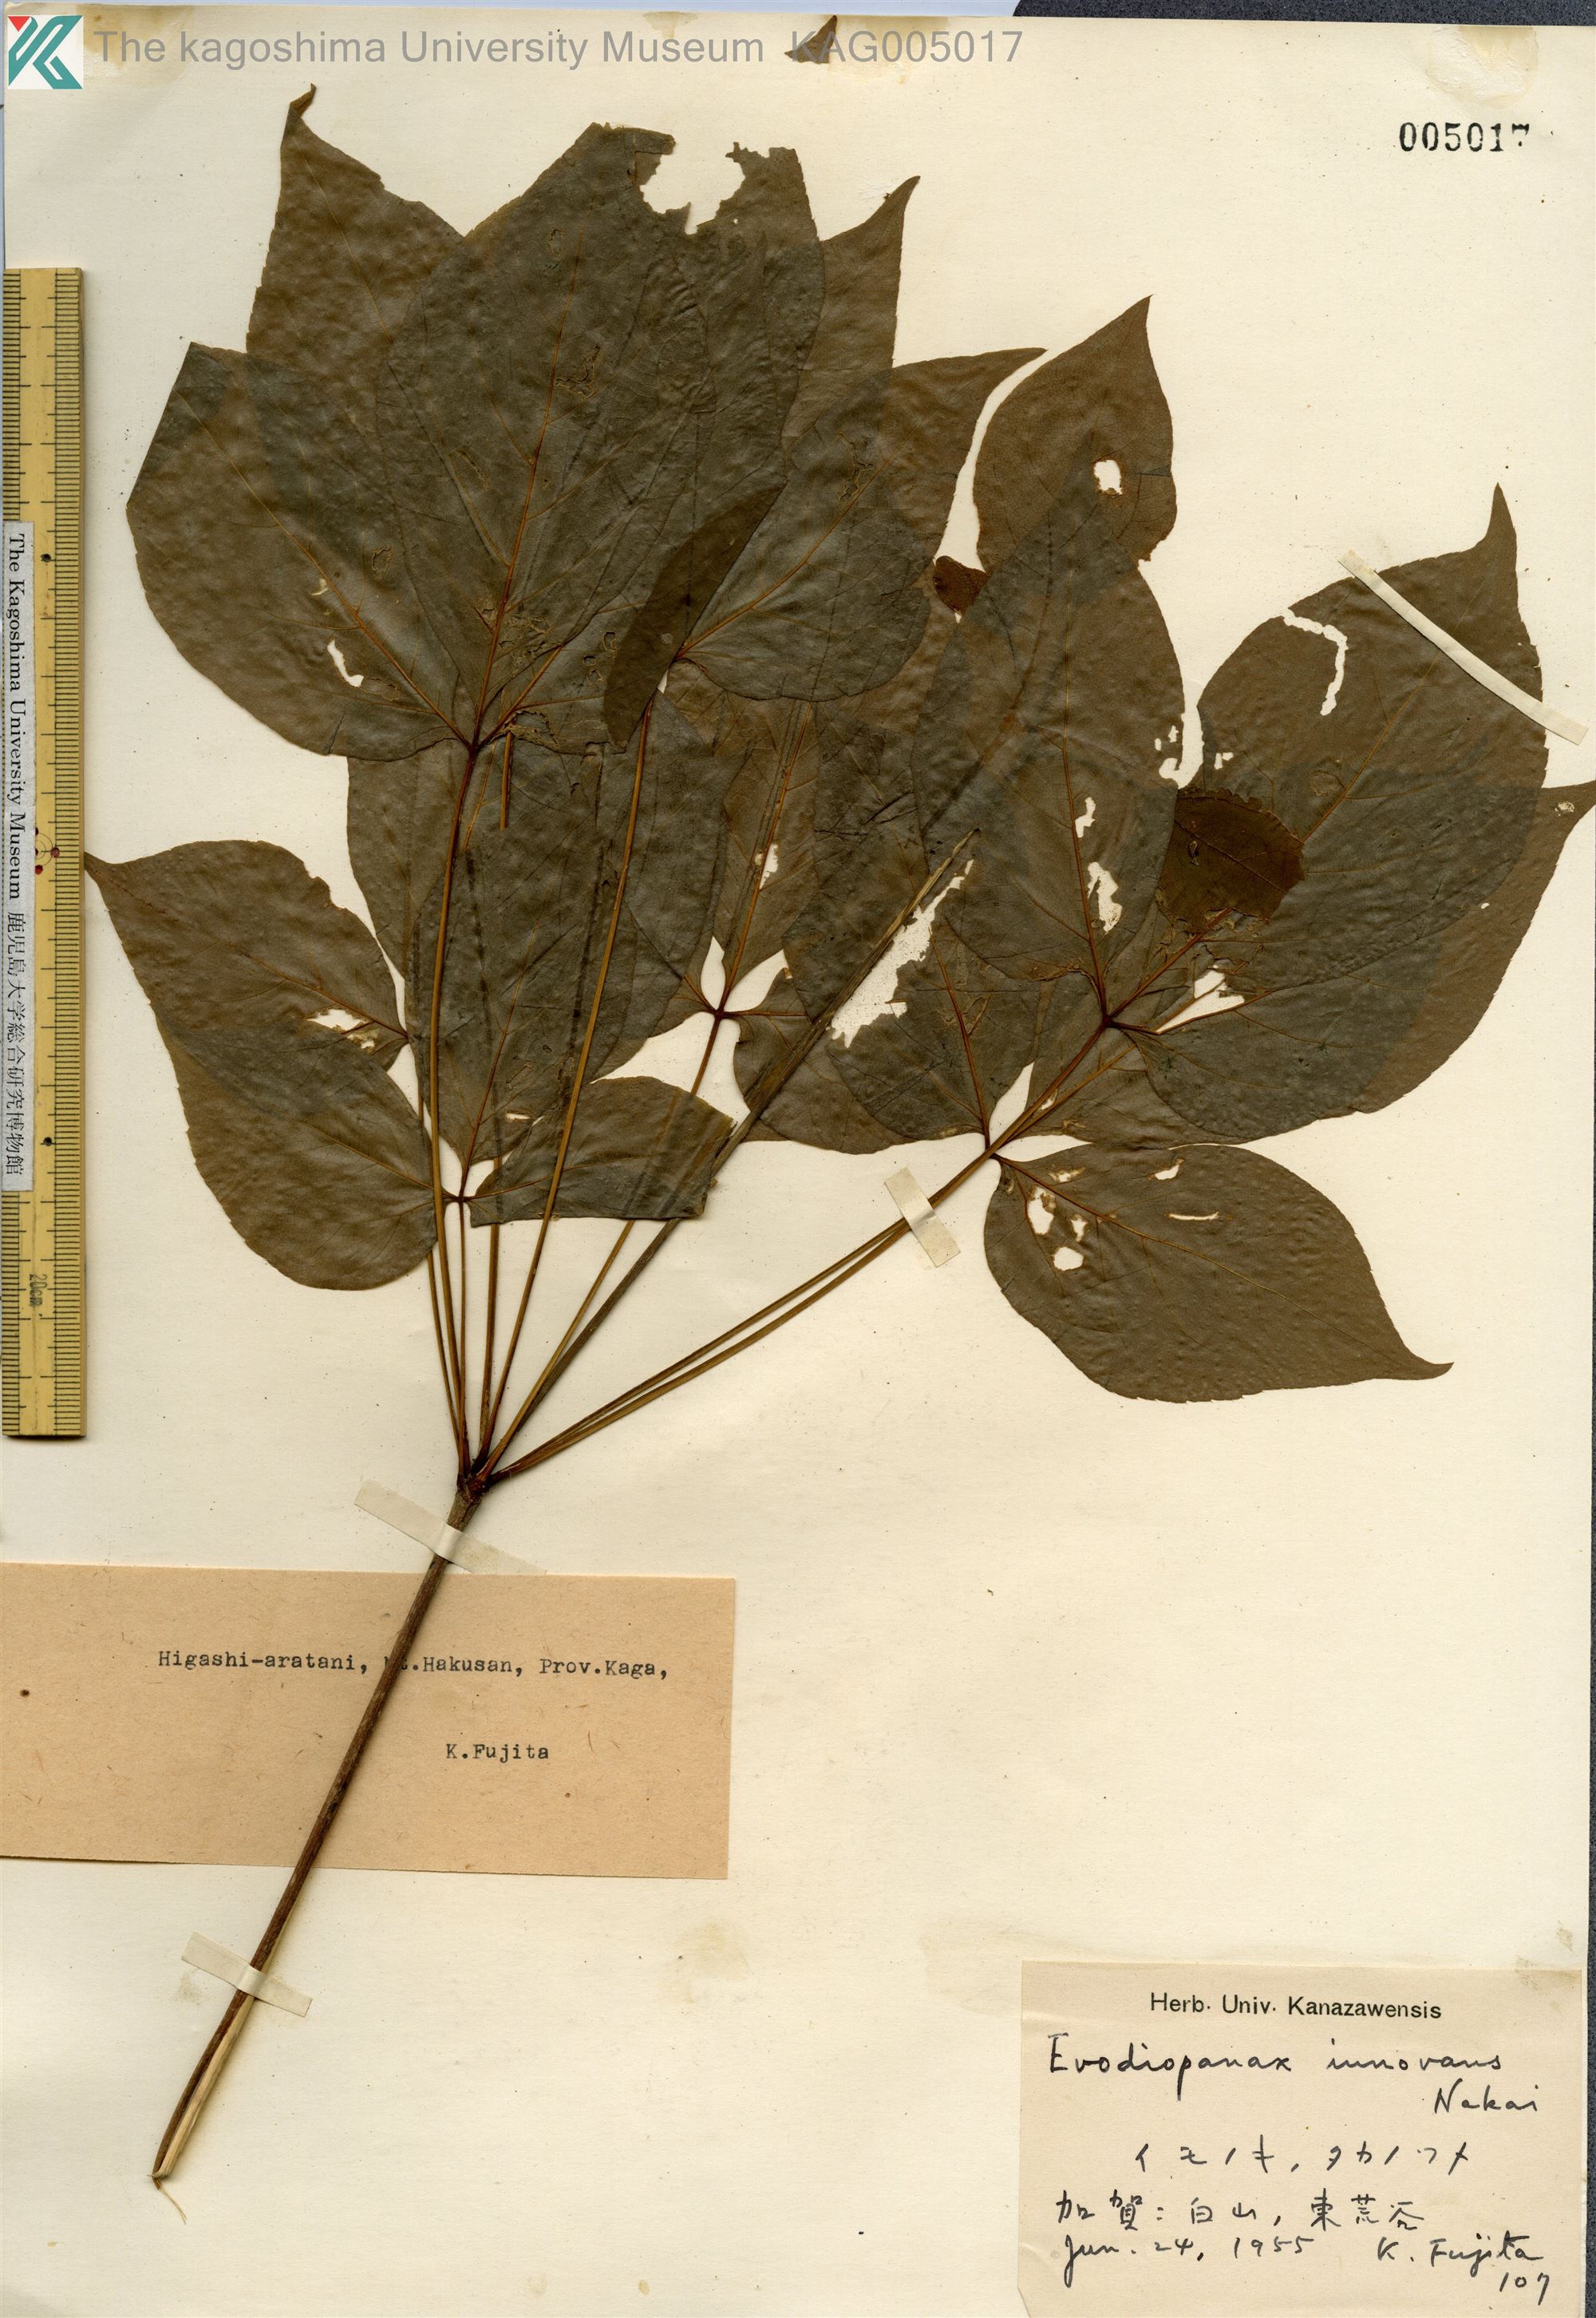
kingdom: Plantae
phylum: Tracheophyta
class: Magnoliopsida
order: Apiales
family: Araliaceae
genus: Gamblea
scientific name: Gamblea innovans
